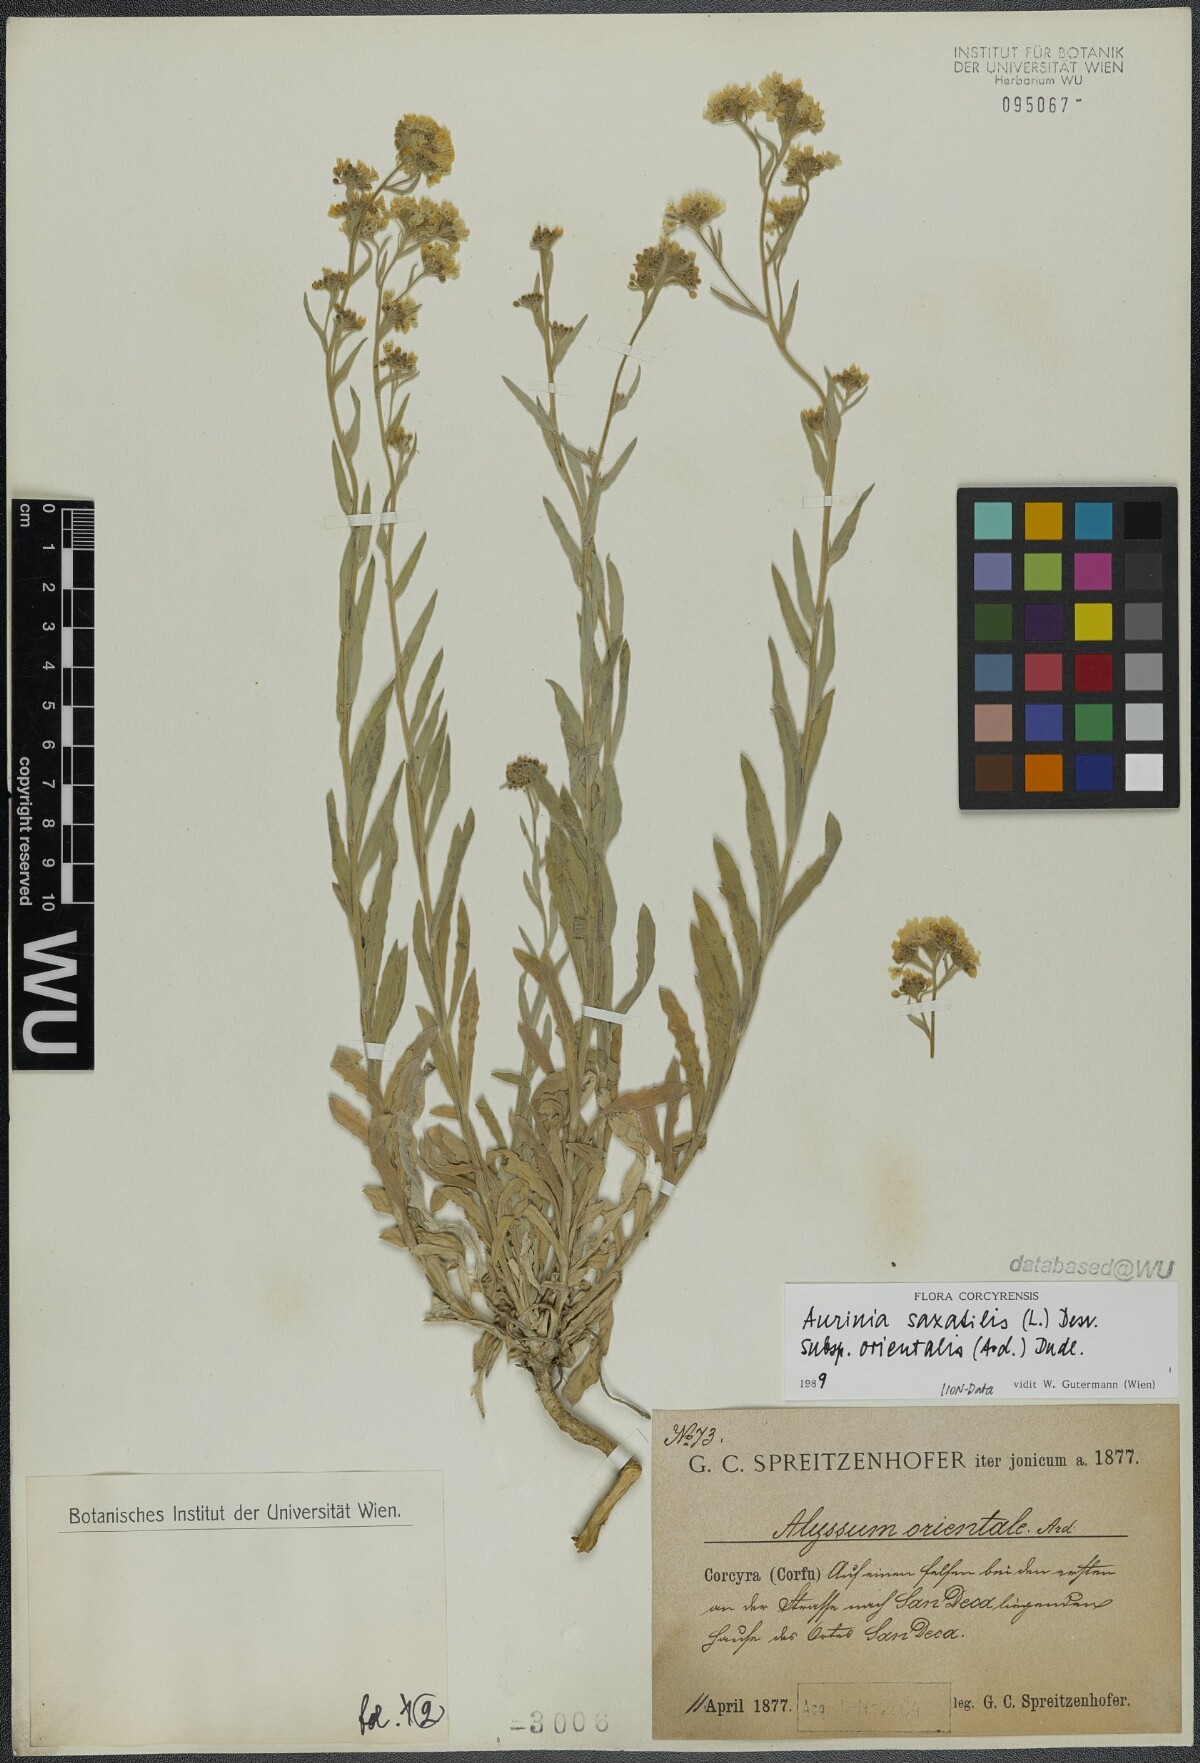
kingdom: Plantae
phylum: Tracheophyta
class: Magnoliopsida
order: Brassicales
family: Brassicaceae
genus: Aurinia
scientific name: Aurinia saxatilis
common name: Golden-tuft alyssum
